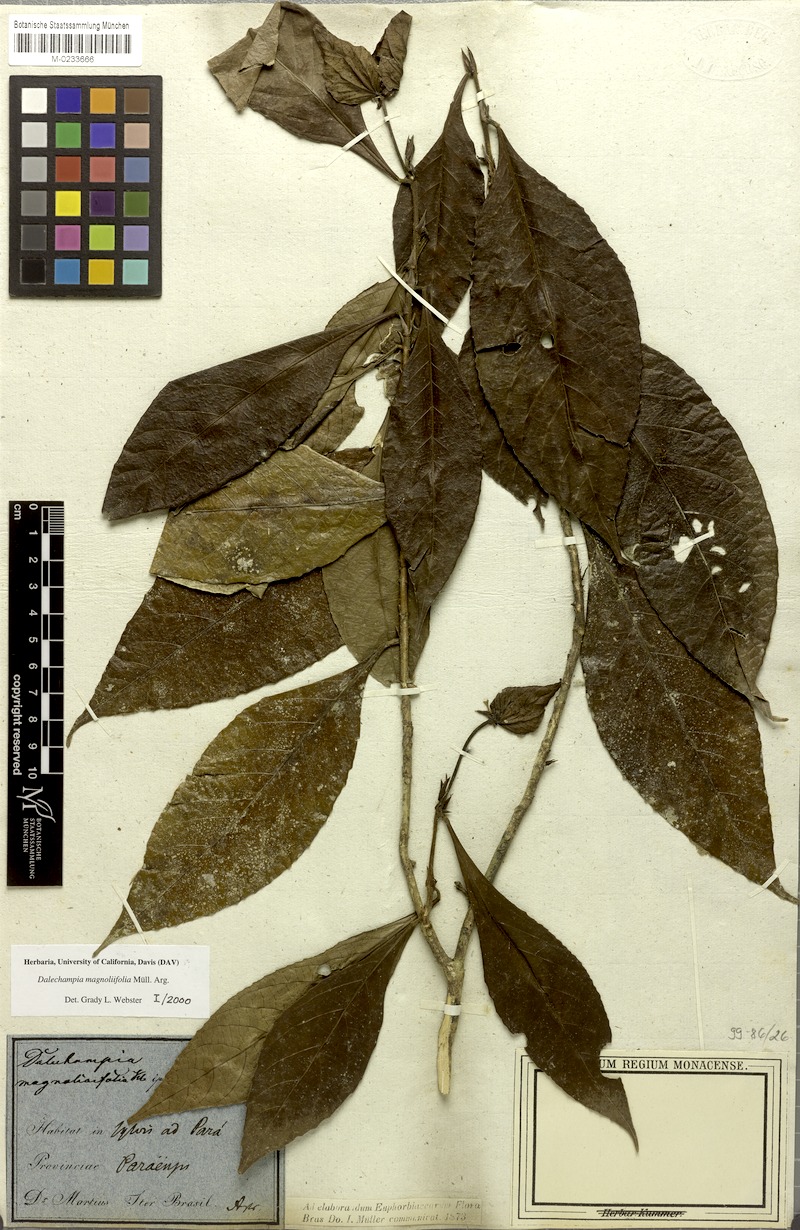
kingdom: Plantae
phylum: Tracheophyta
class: Magnoliopsida
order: Malpighiales
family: Euphorbiaceae
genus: Dalechampia
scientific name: Dalechampia magnoliifolia
